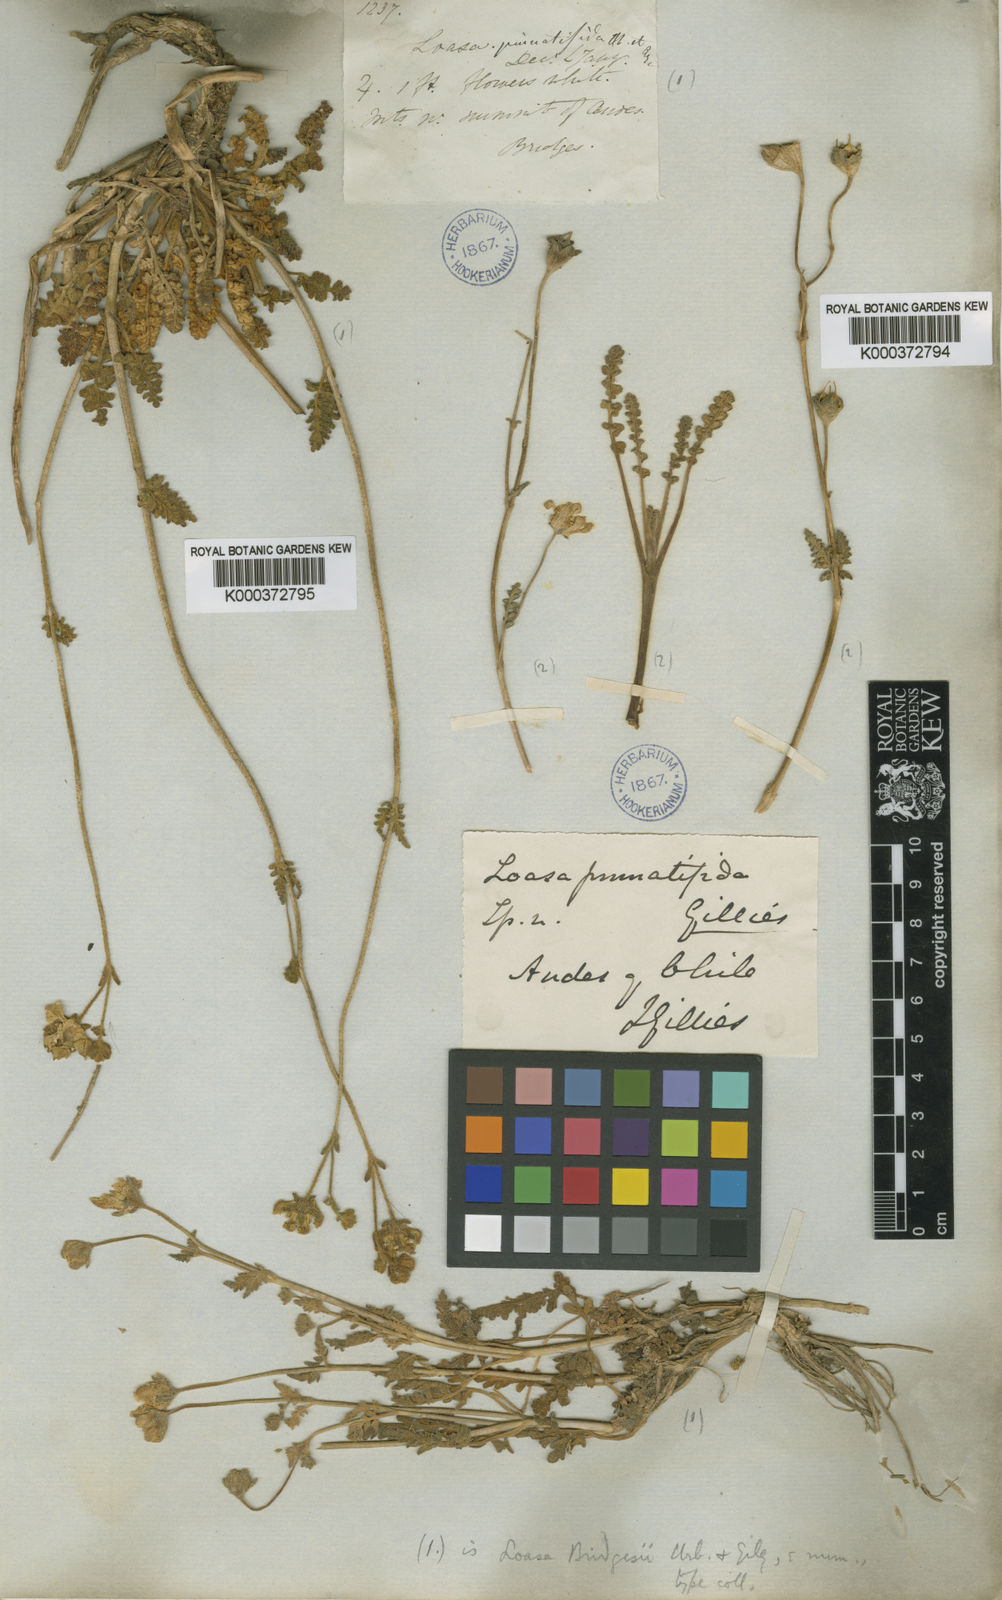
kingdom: Plantae
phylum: Tracheophyta
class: Magnoliopsida
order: Cornales
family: Loasaceae
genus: Pinnasa
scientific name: Pinnasa pinnatifida
